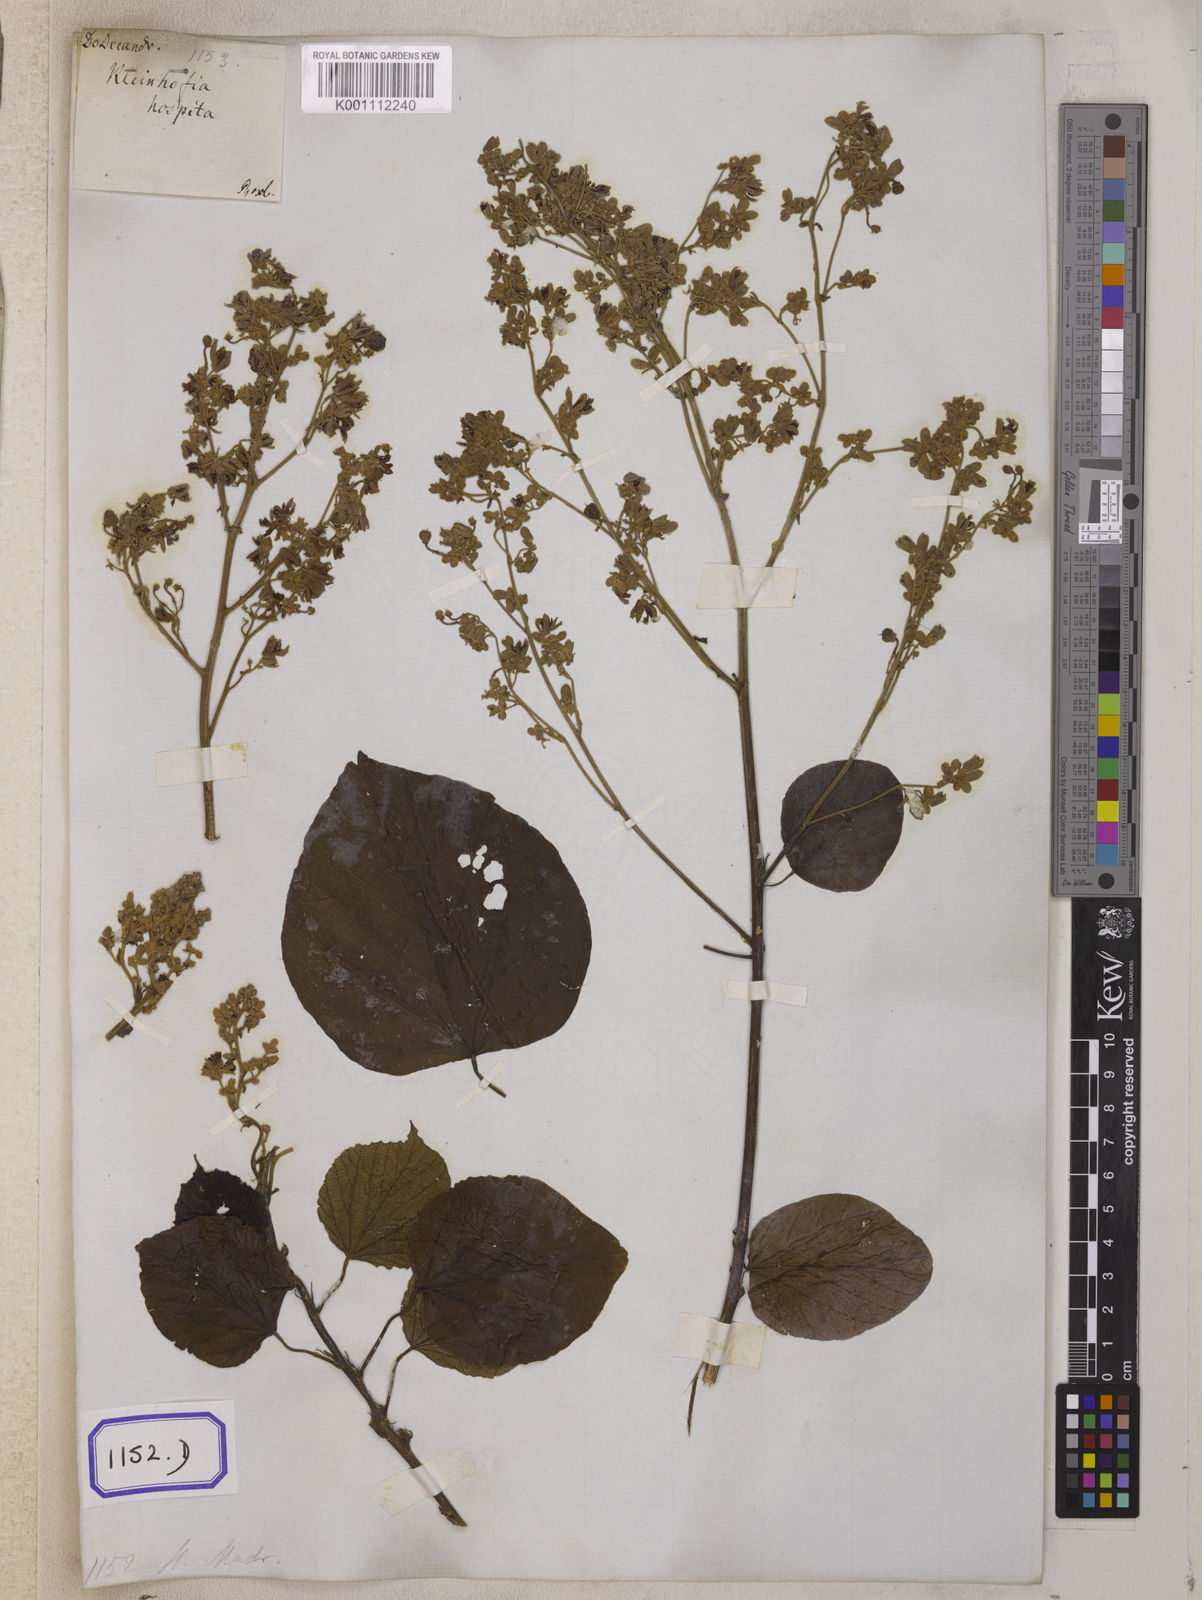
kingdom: Plantae
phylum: Tracheophyta
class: Magnoliopsida
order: Malvales
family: Malvaceae
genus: Kleinhovia
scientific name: Kleinhovia hospita
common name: Guest-tree
